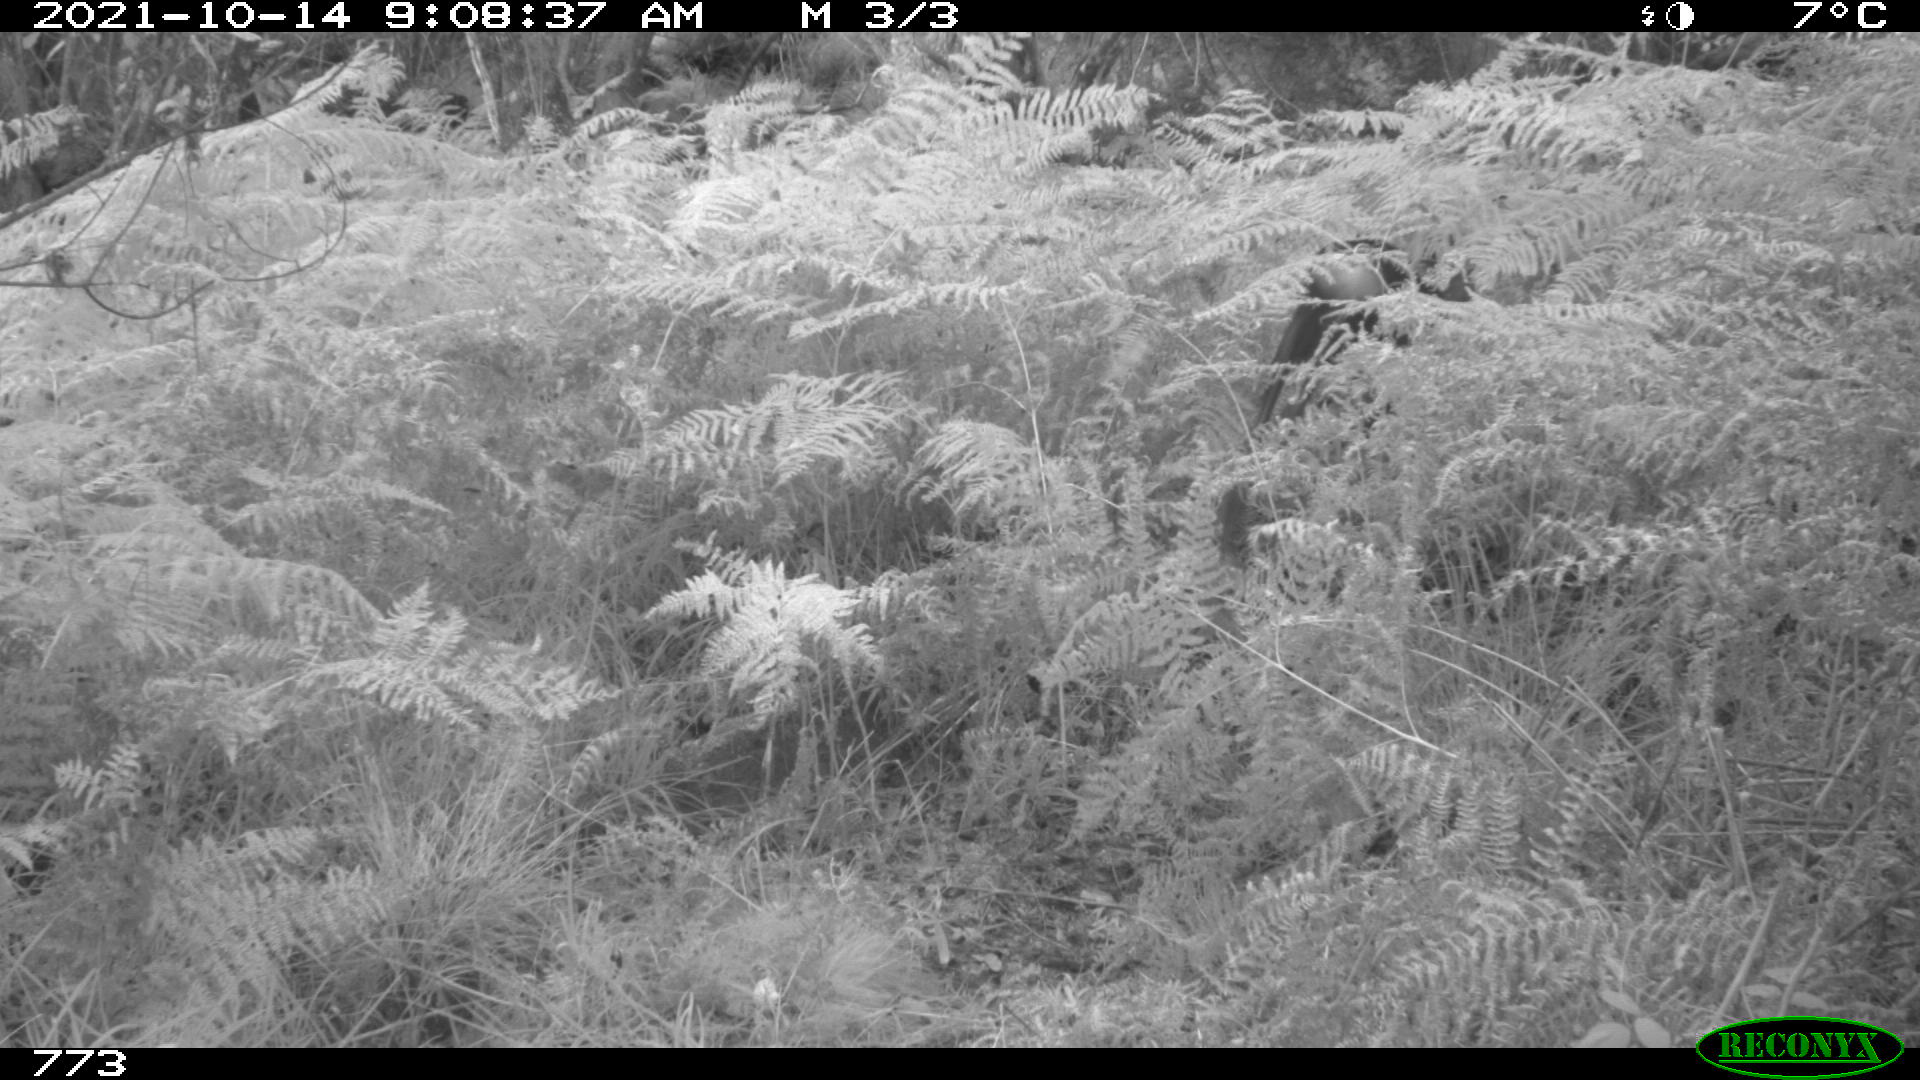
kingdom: Animalia
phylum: Chordata
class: Mammalia
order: Artiodactyla
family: Cervidae
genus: Capreolus
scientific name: Capreolus capreolus
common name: Western roe deer
